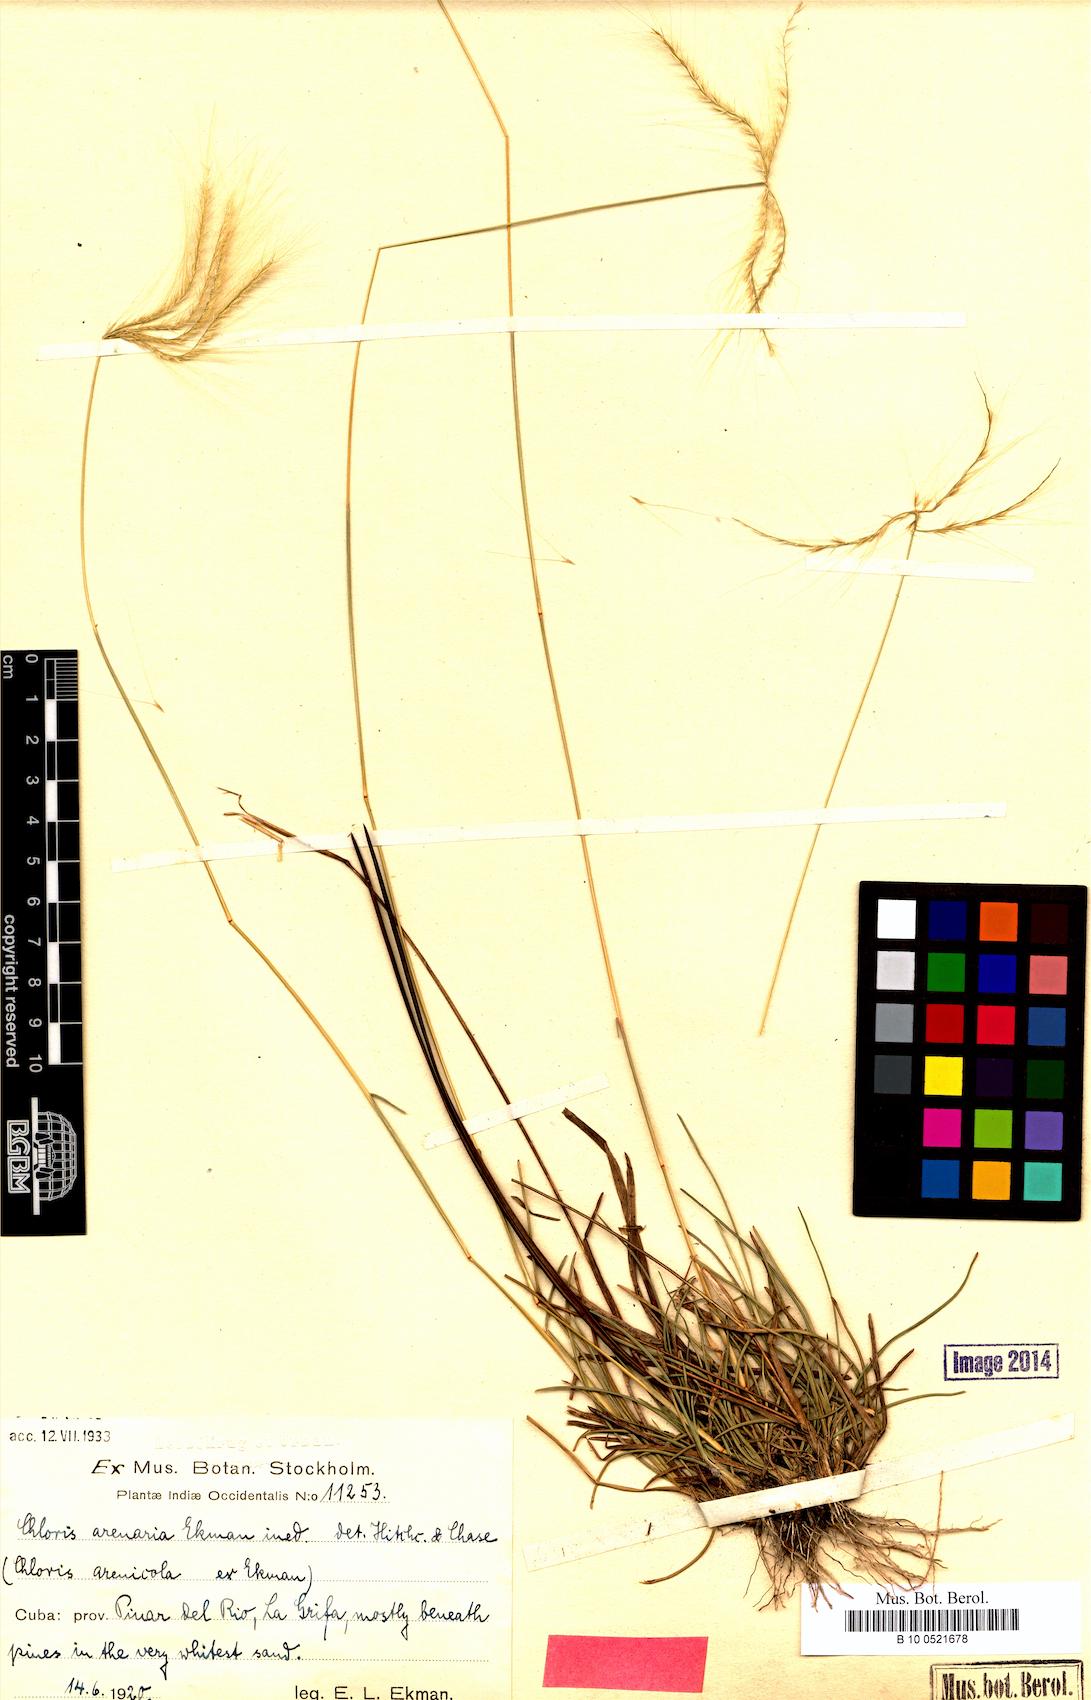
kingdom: Plantae
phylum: Tracheophyta
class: Liliopsida
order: Poales
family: Poaceae
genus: Chloris
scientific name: Chloris arenaria
